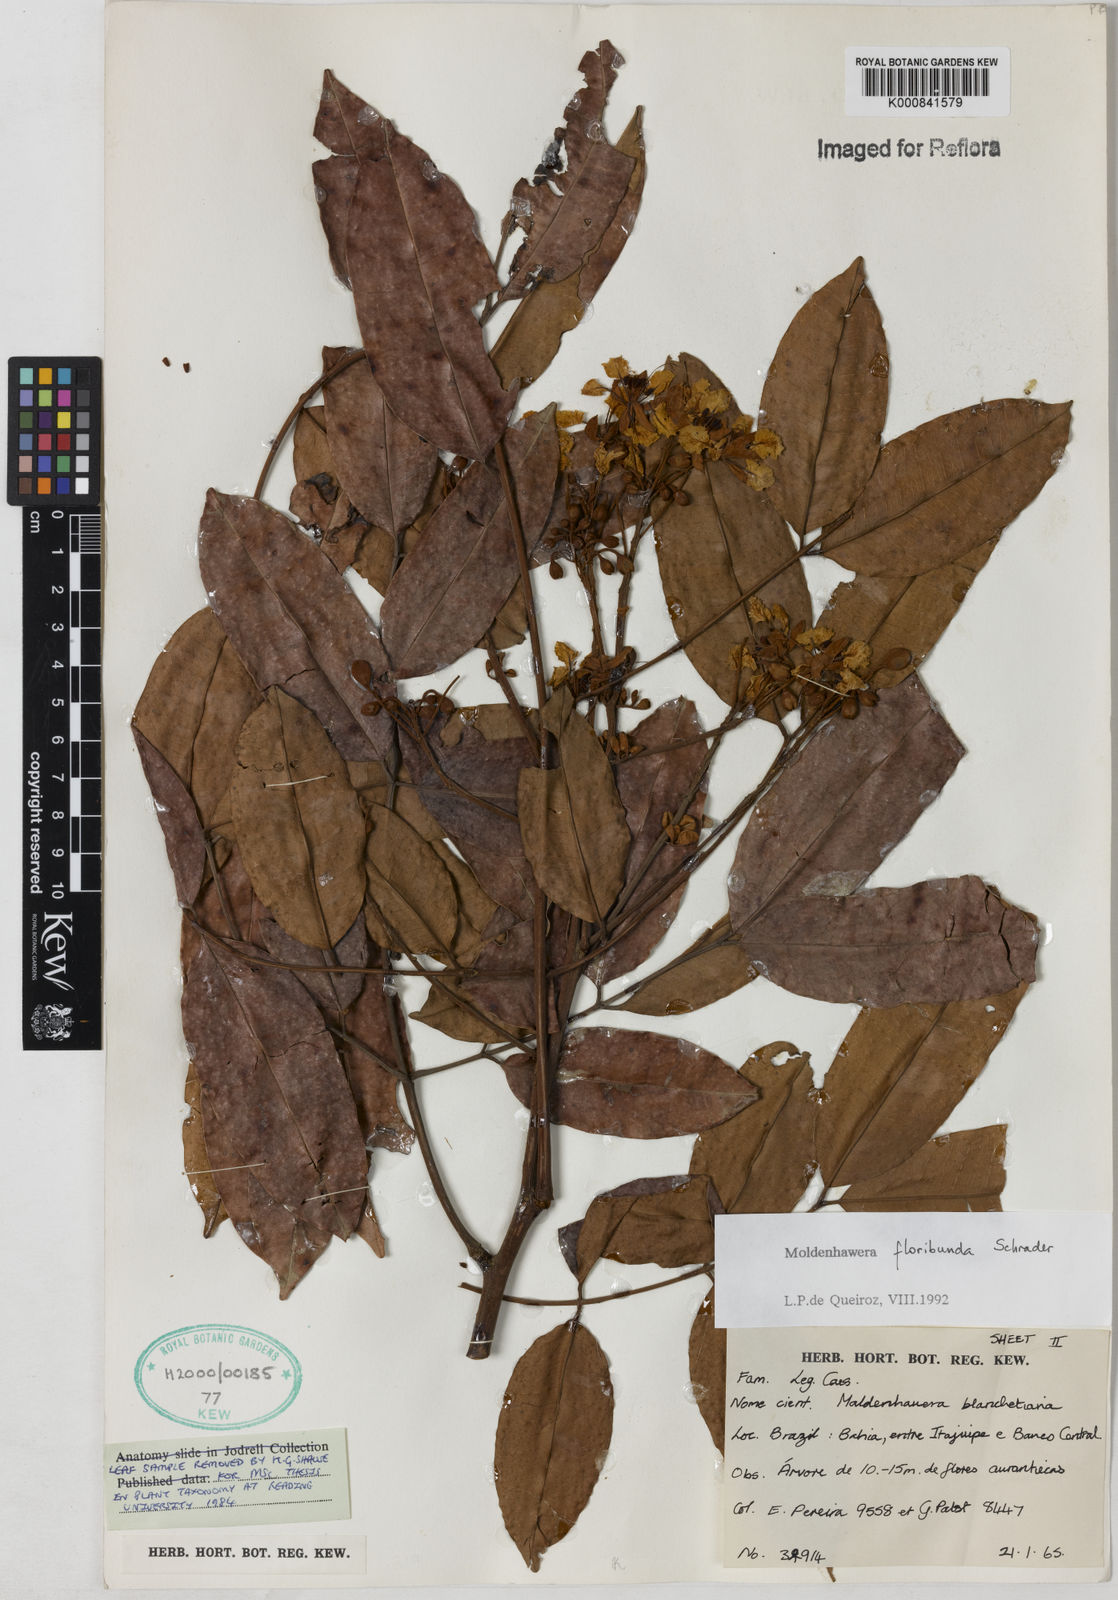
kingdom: Plantae
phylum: Tracheophyta
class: Magnoliopsida
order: Fabales
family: Fabaceae
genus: Moldenhawera
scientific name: Moldenhawera floribunda
